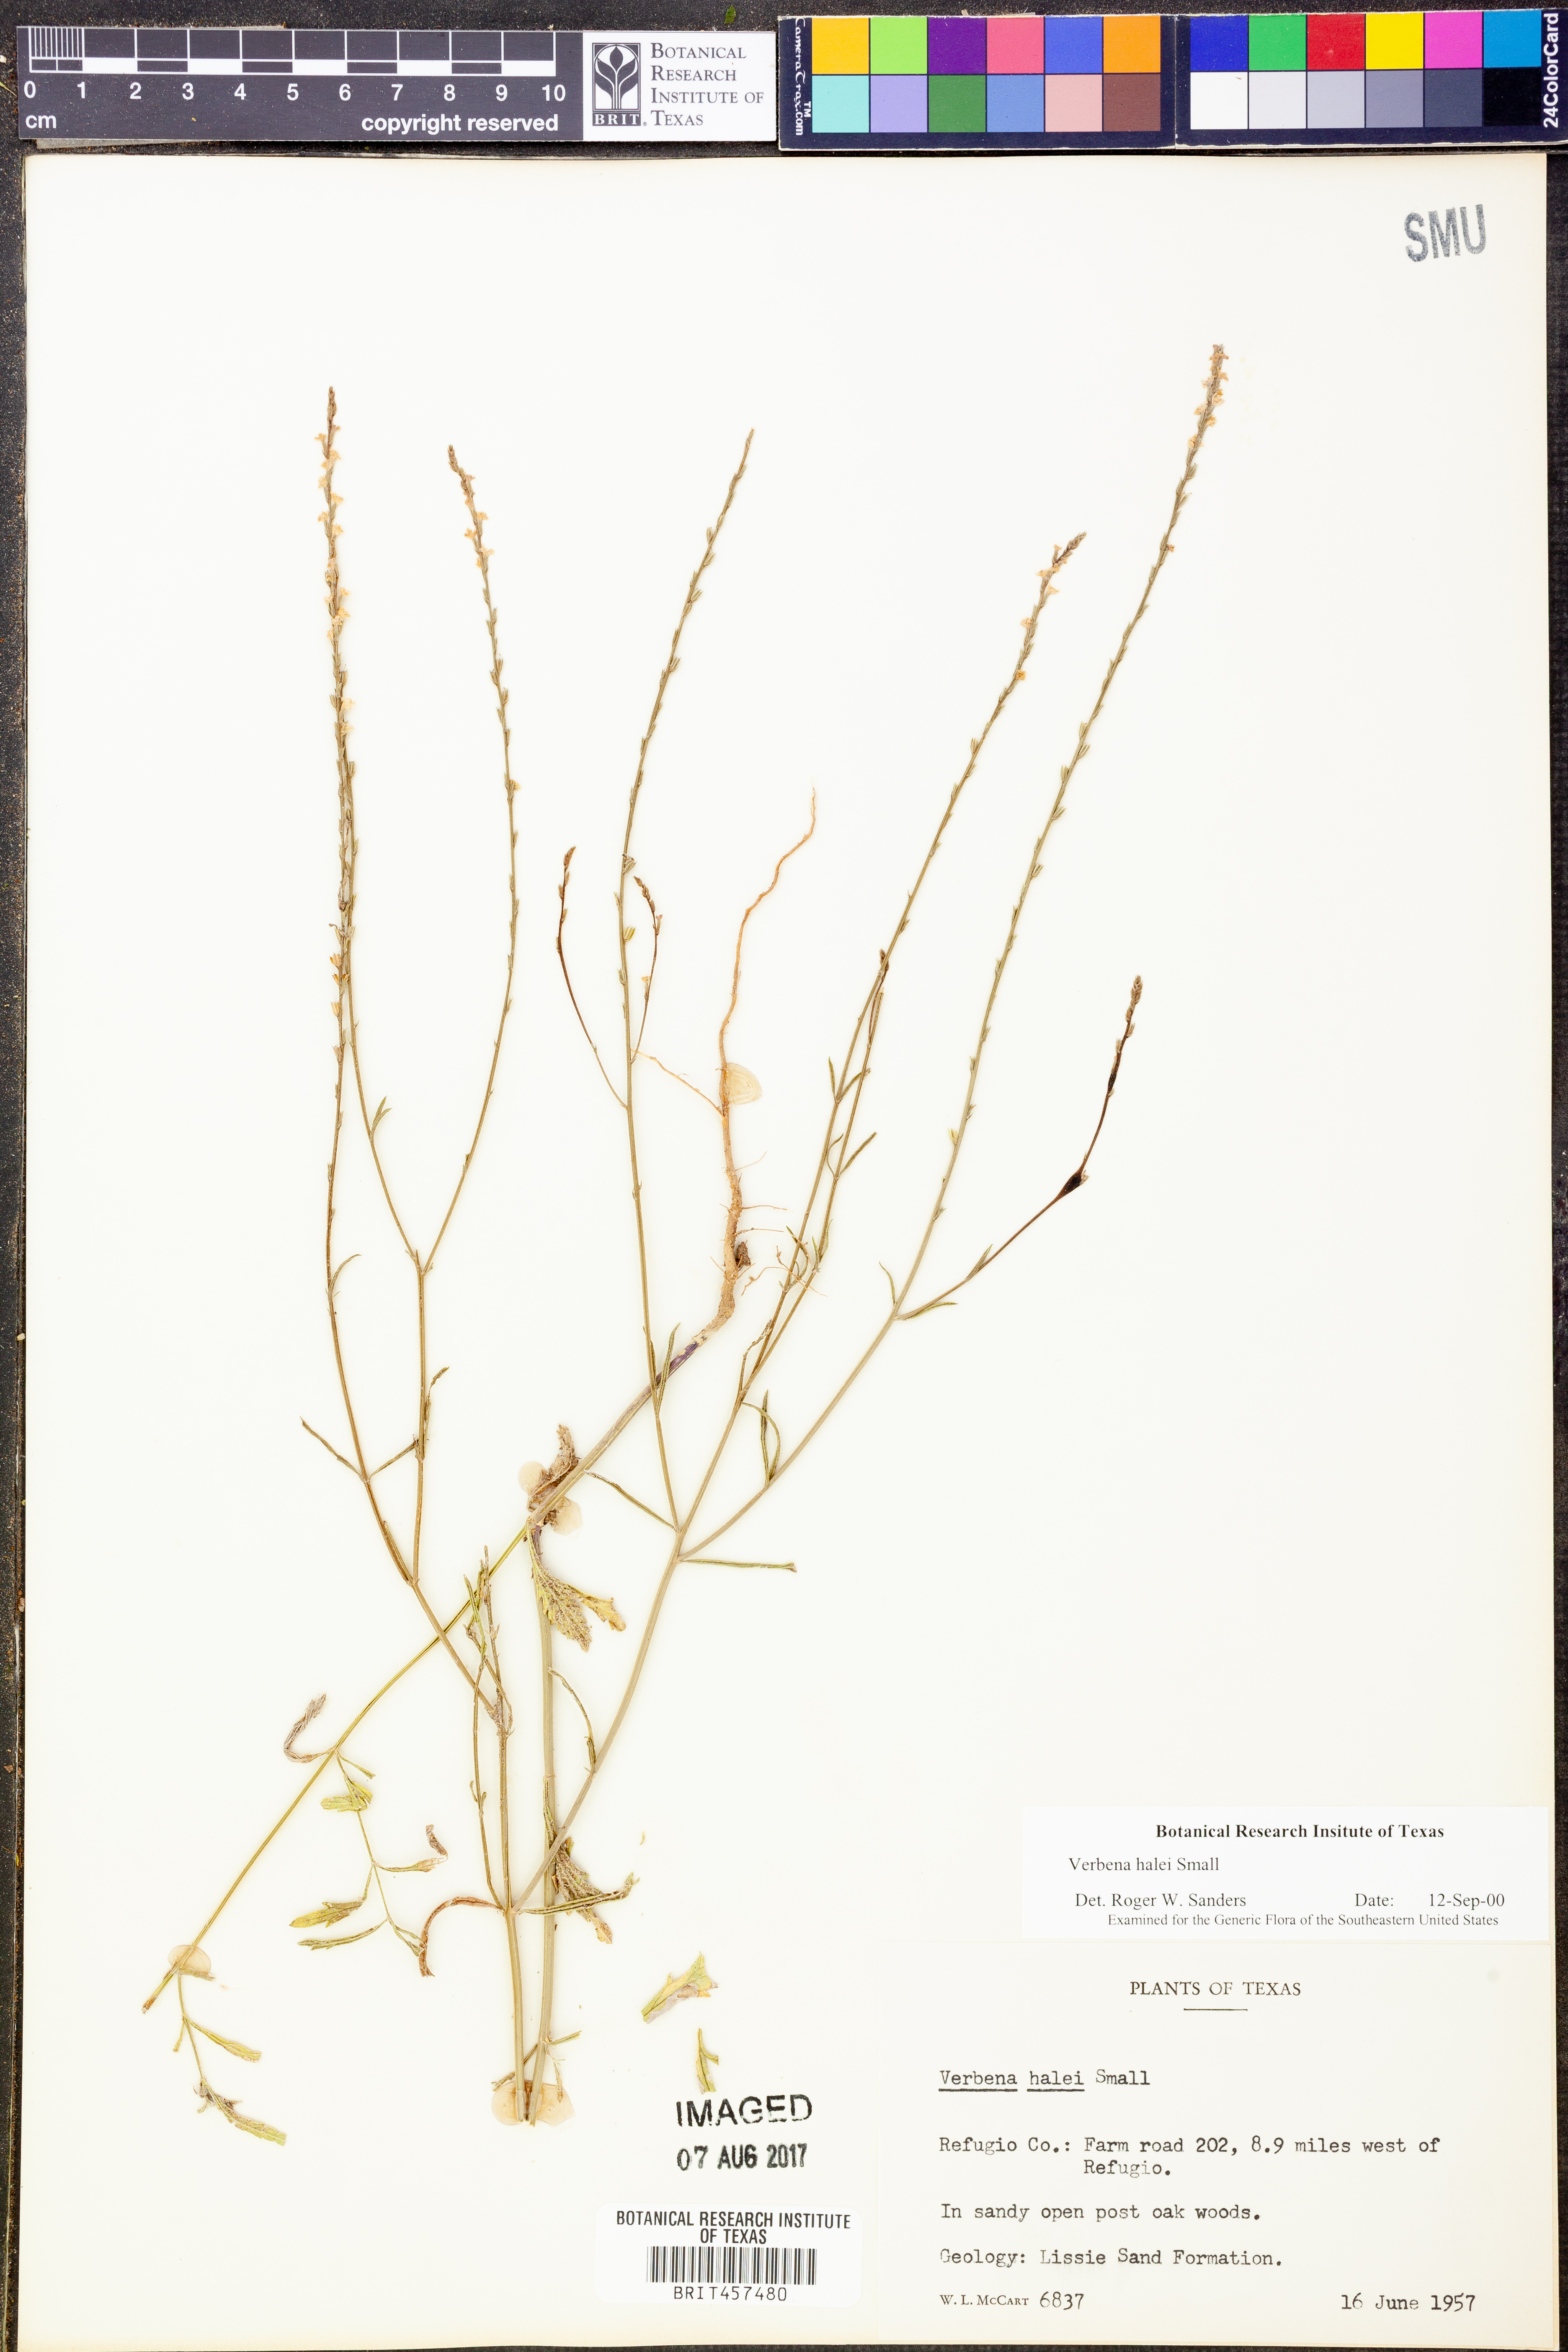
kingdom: Plantae
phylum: Tracheophyta
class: Magnoliopsida
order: Lamiales
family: Verbenaceae
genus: Verbena
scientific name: Verbena halei
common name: Texas vervain
